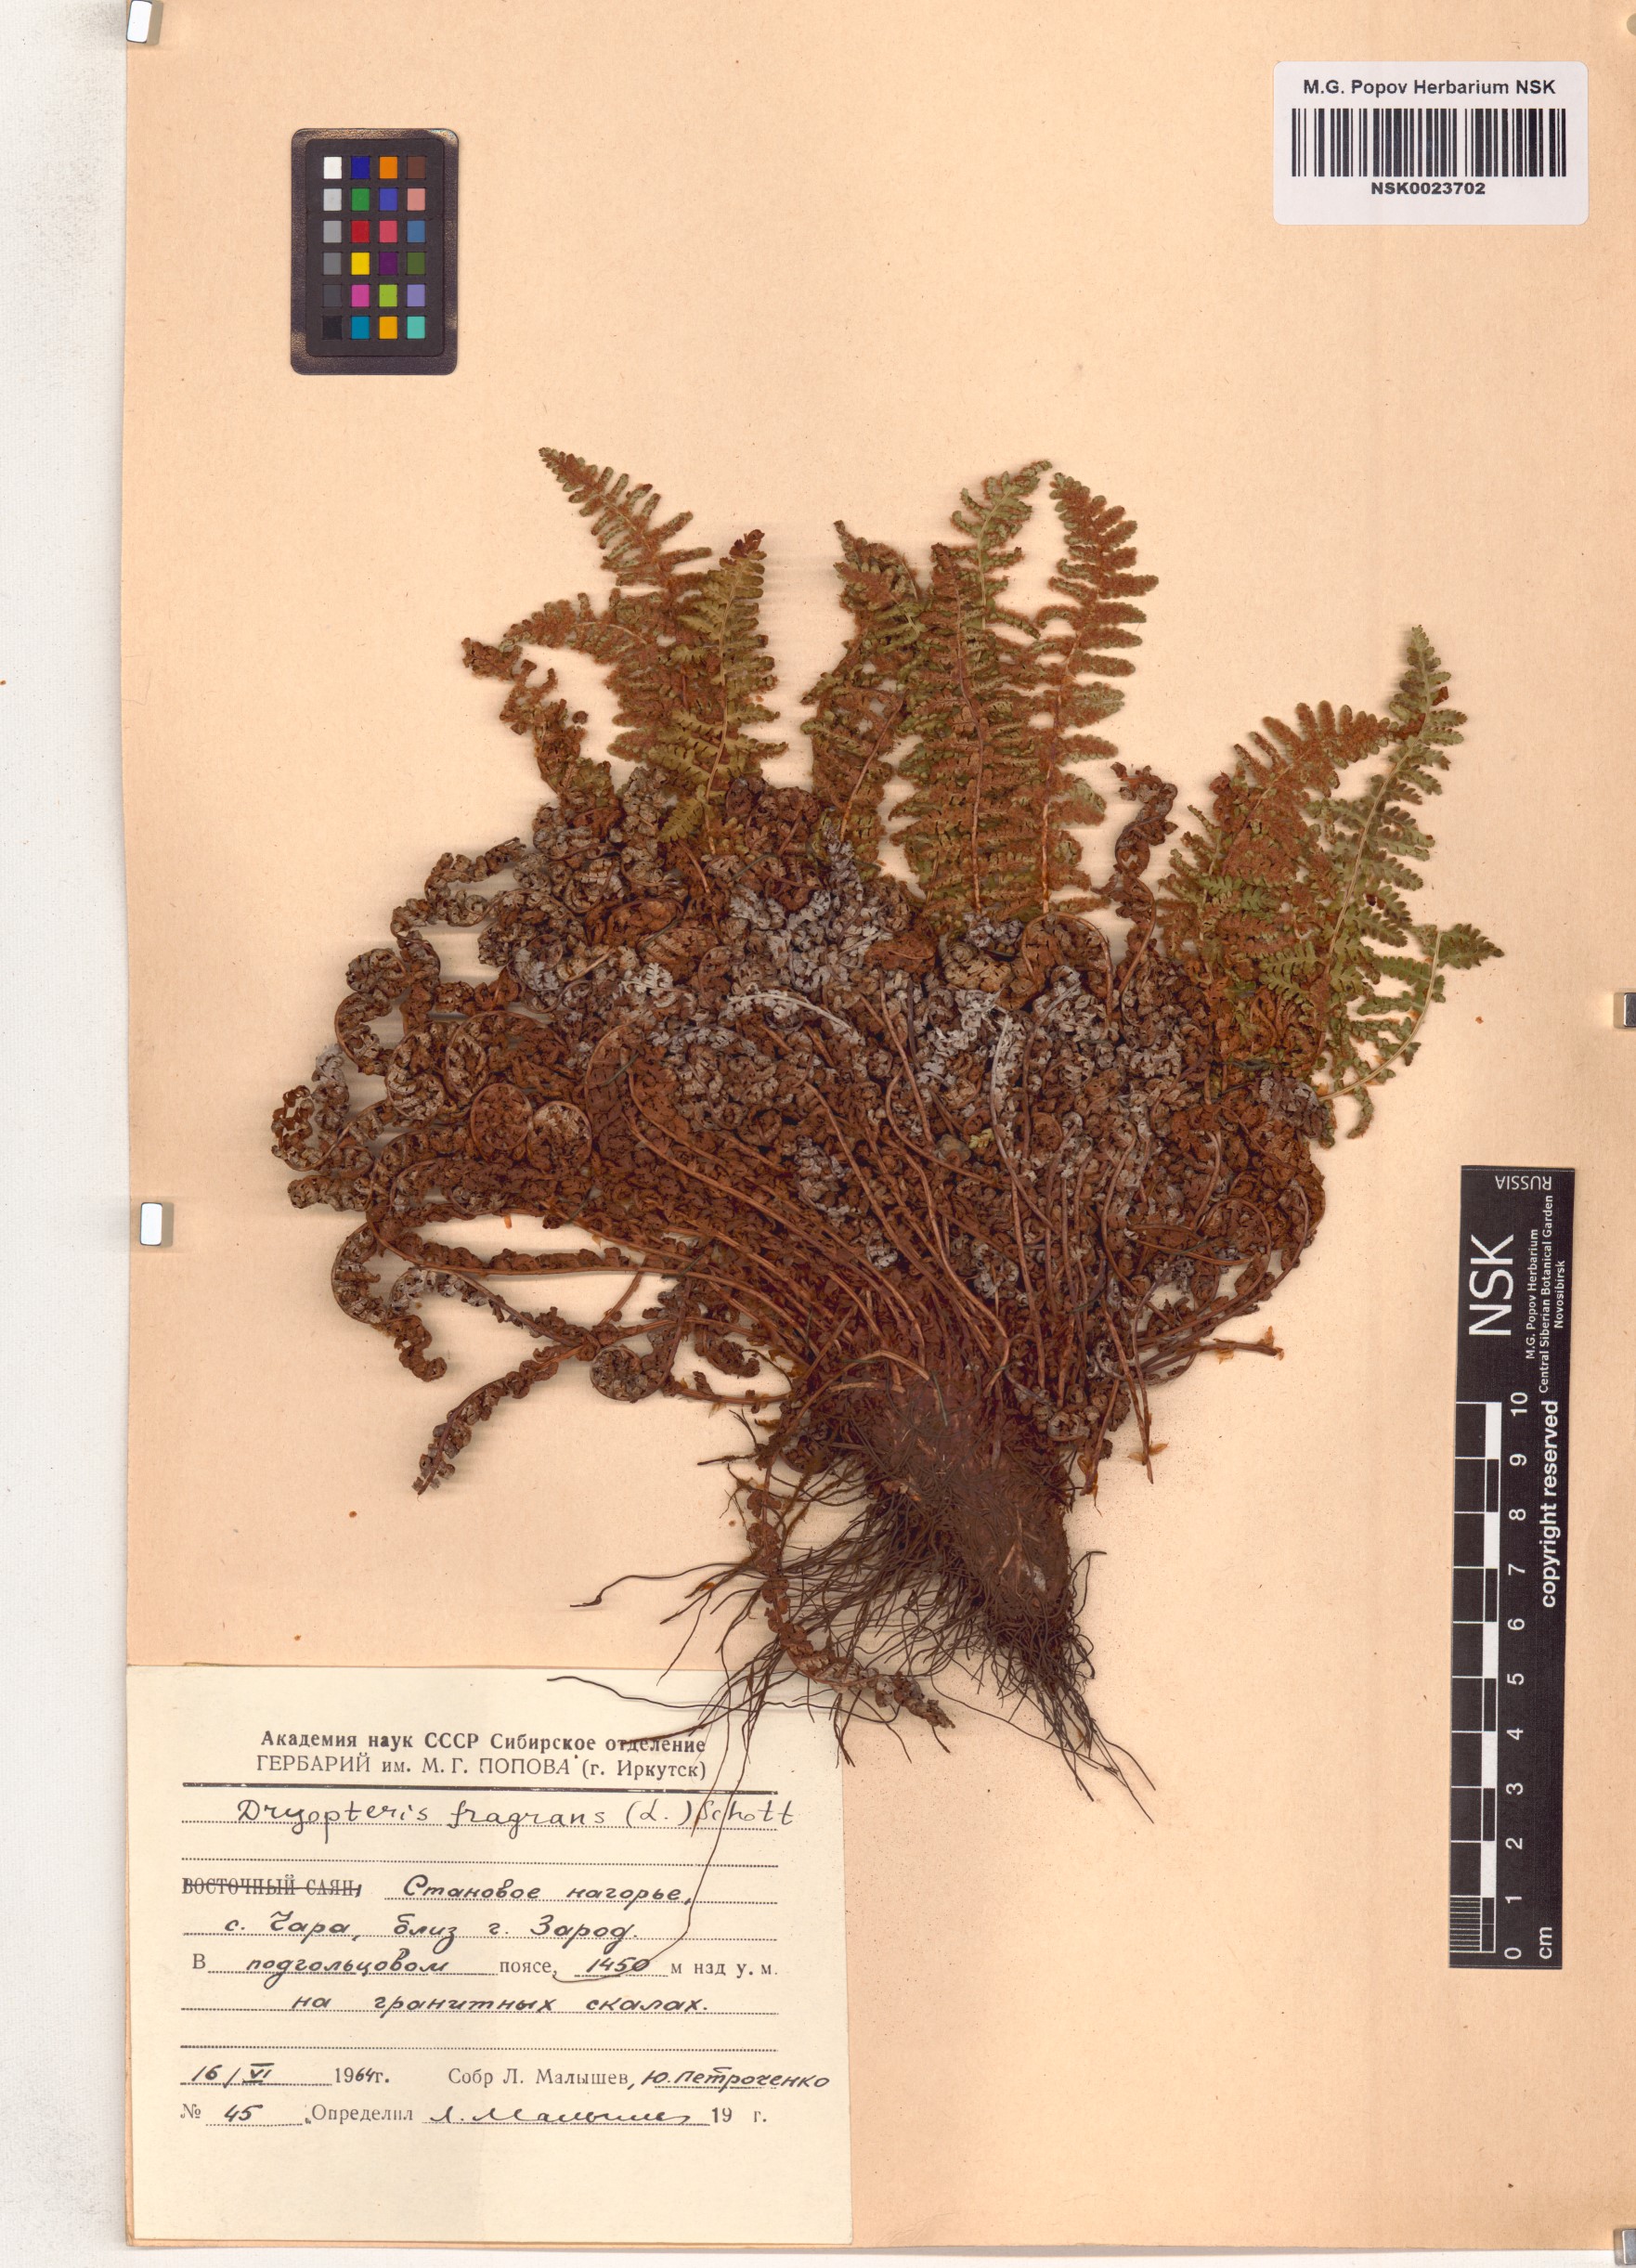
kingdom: Plantae
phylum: Tracheophyta
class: Polypodiopsida
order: Polypodiales
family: Dryopteridaceae
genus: Dryopteris
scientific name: Dryopteris fragrans
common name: Fragrant wood fern
